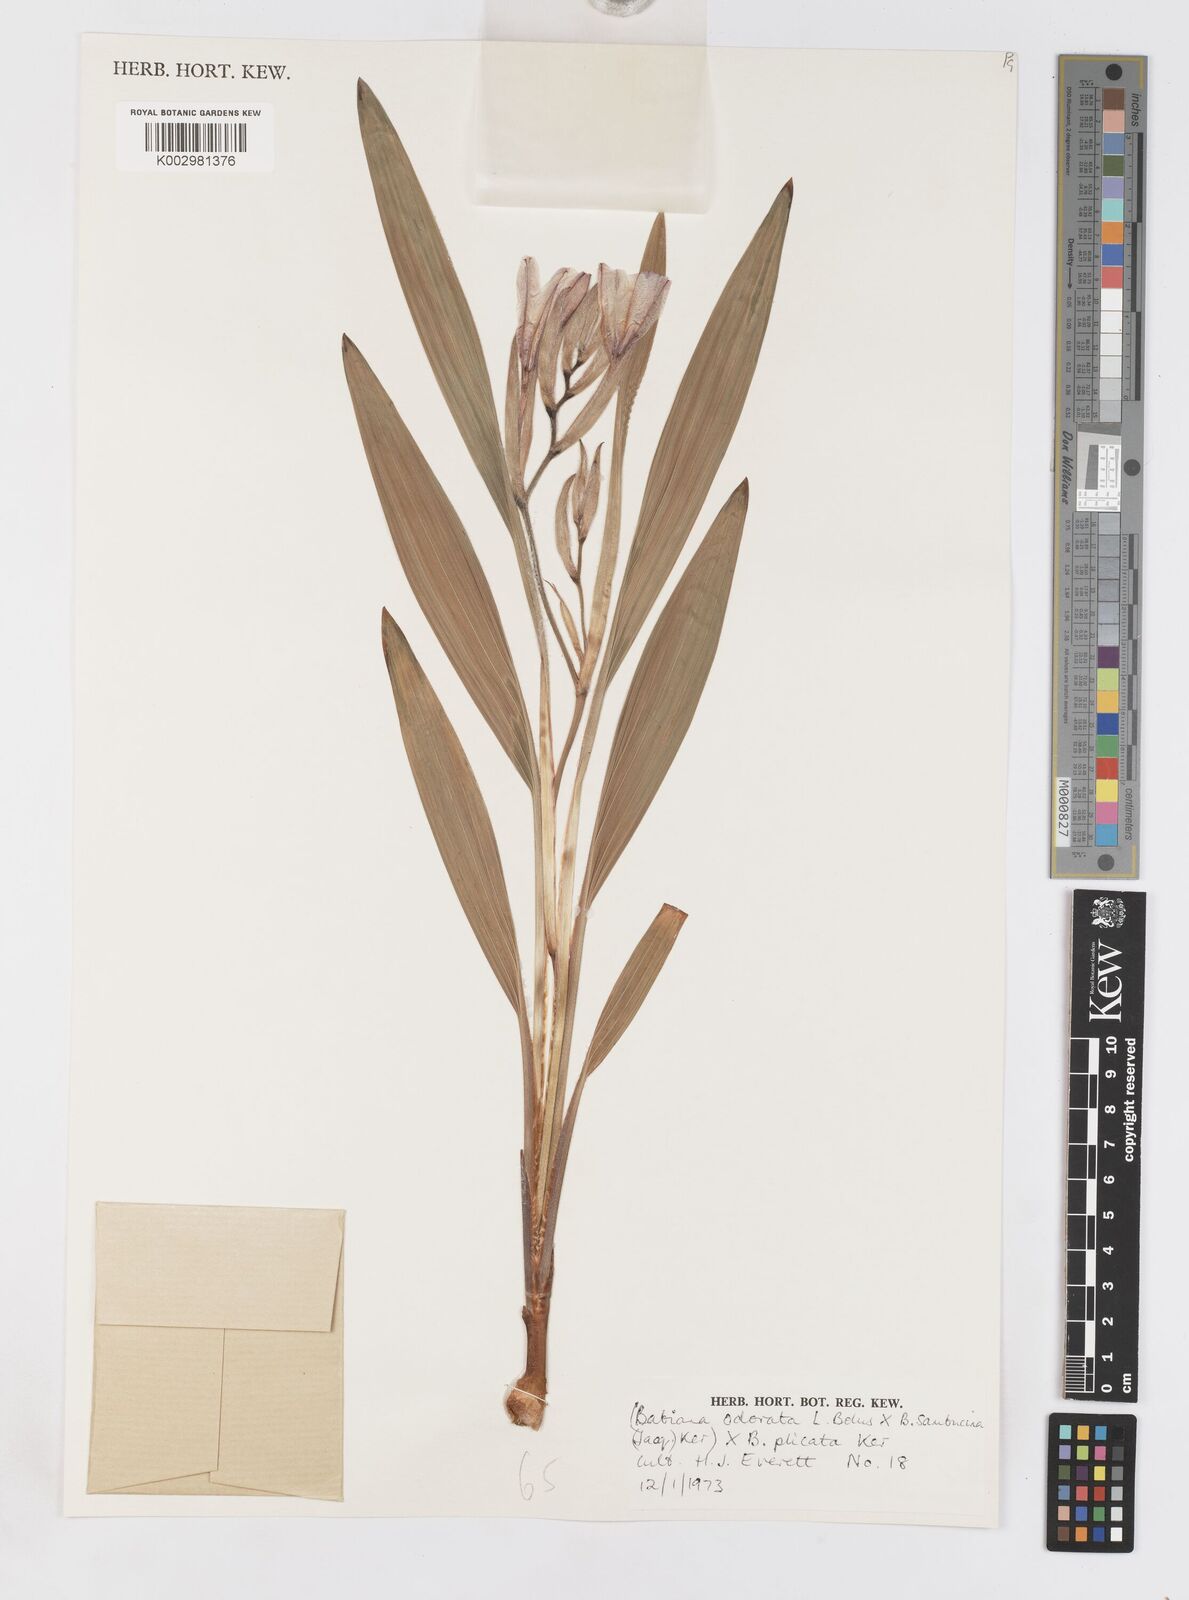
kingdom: Plantae
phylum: Tracheophyta
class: Liliopsida
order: Asparagales
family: Iridaceae
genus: Babiana
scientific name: Babiana fragrans
